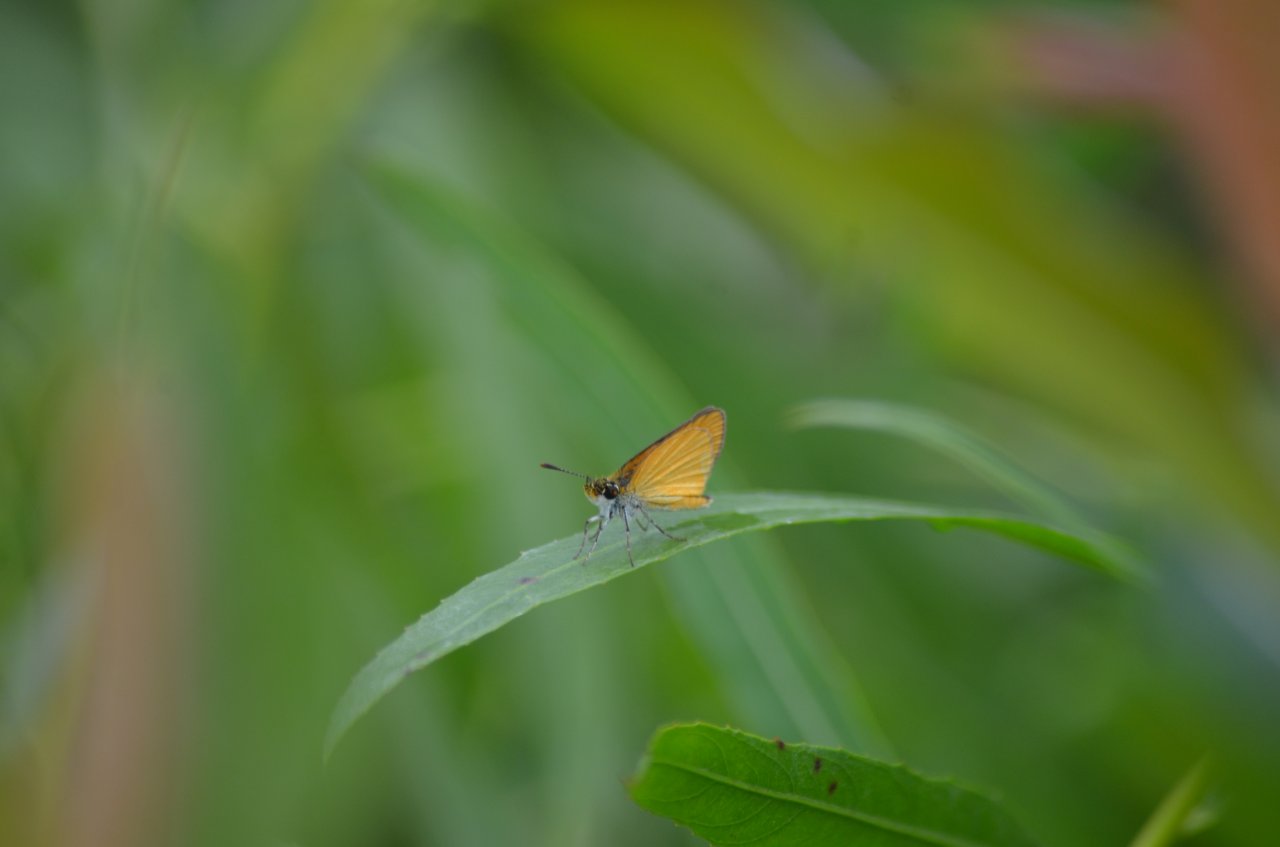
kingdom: Animalia
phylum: Arthropoda
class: Insecta
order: Lepidoptera
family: Hesperiidae
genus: Ancyloxypha
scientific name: Ancyloxypha numitor
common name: Least Skipper
